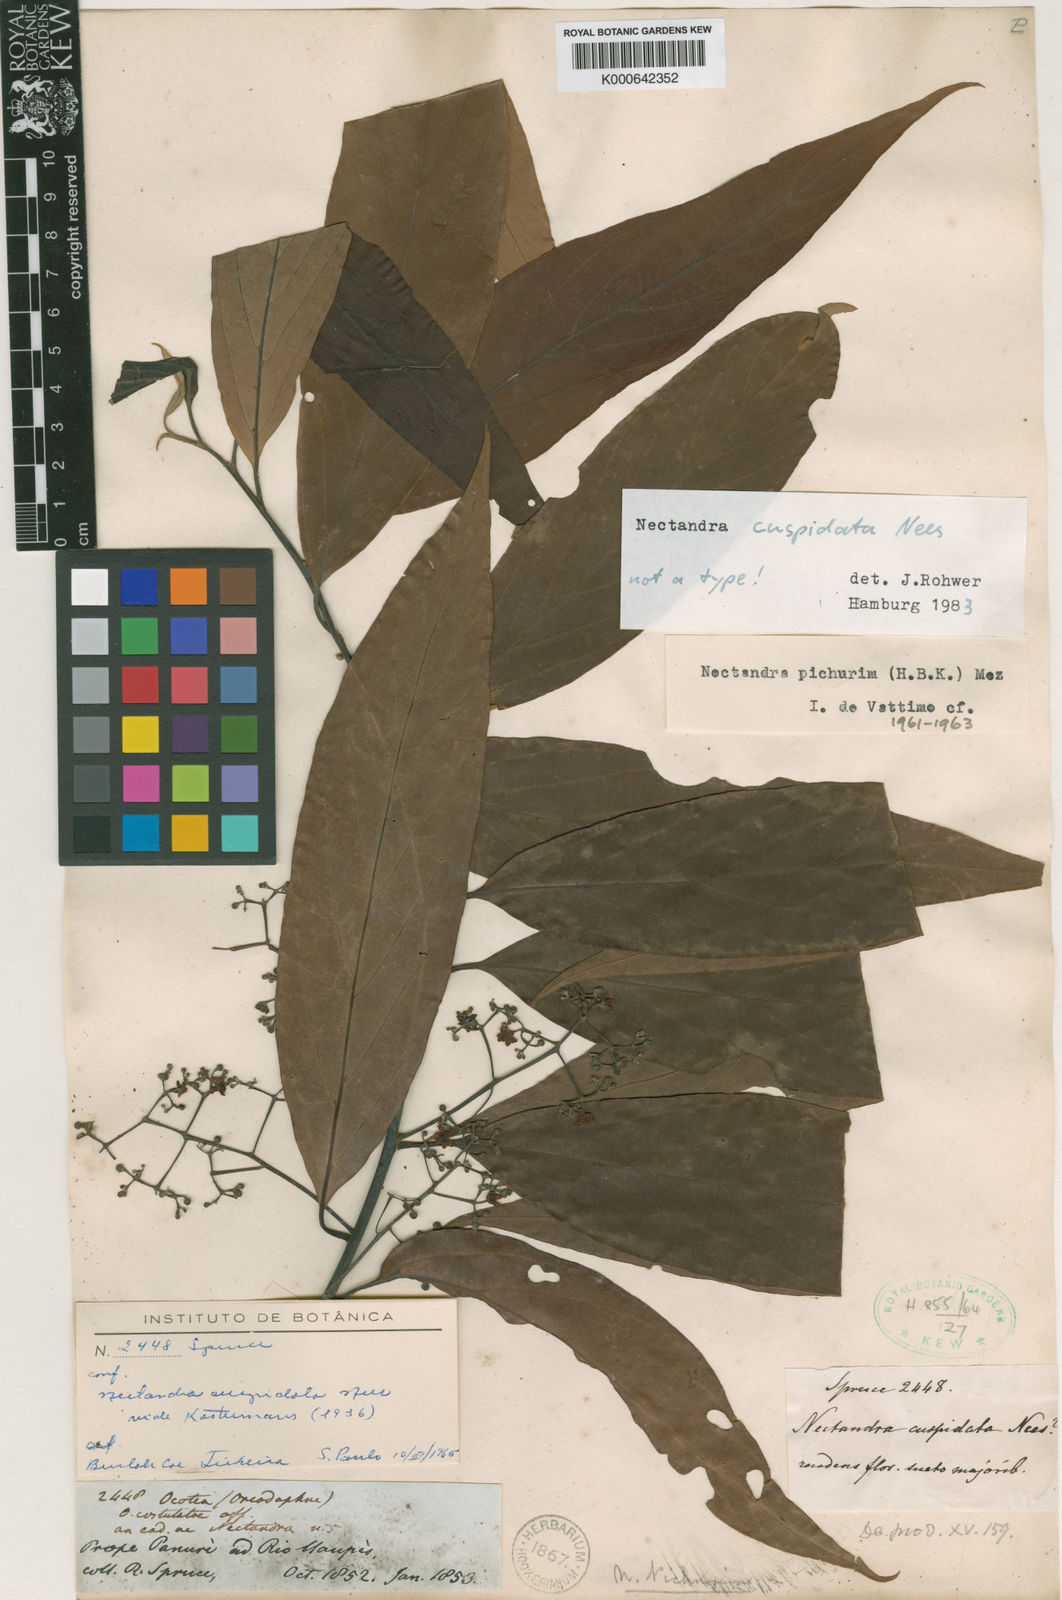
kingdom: Plantae
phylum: Tracheophyta
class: Magnoliopsida
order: Laurales
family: Lauraceae
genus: Nectandra
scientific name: Nectandra cuspidata
